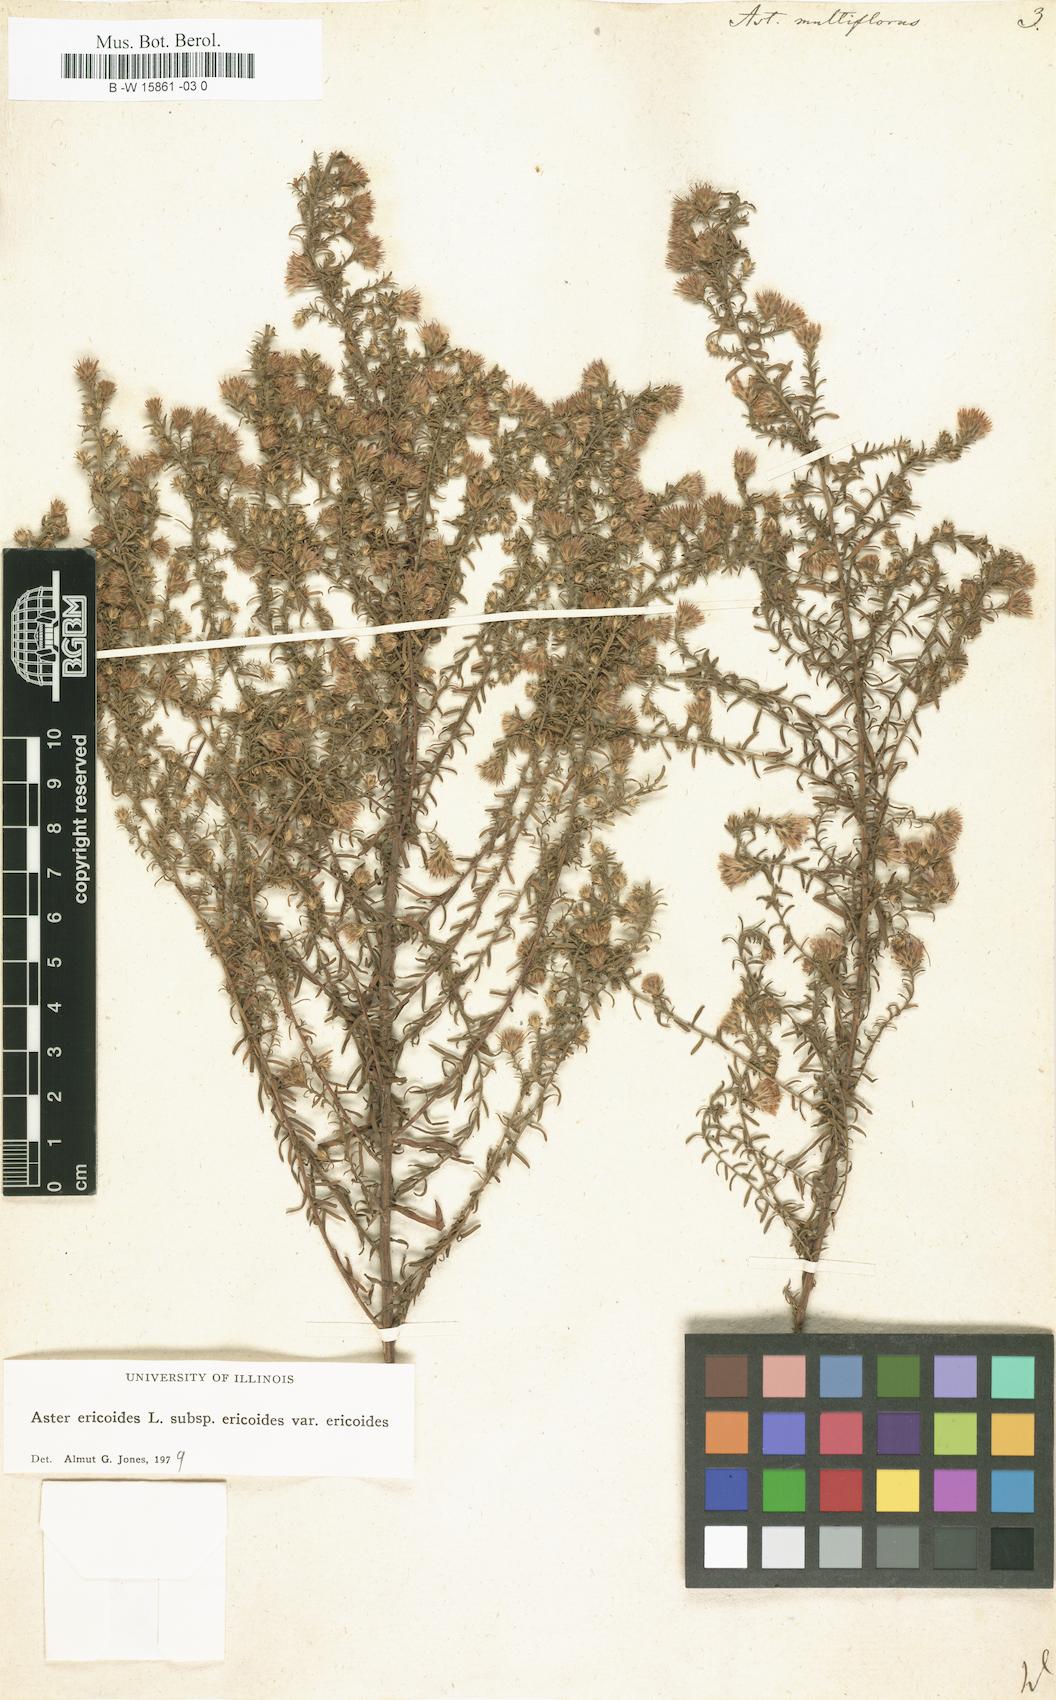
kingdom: Plantae
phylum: Tracheophyta
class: Magnoliopsida
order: Asterales
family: Asteraceae
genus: Symphyotrichum
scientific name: Symphyotrichum ericoides
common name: Heath aster
